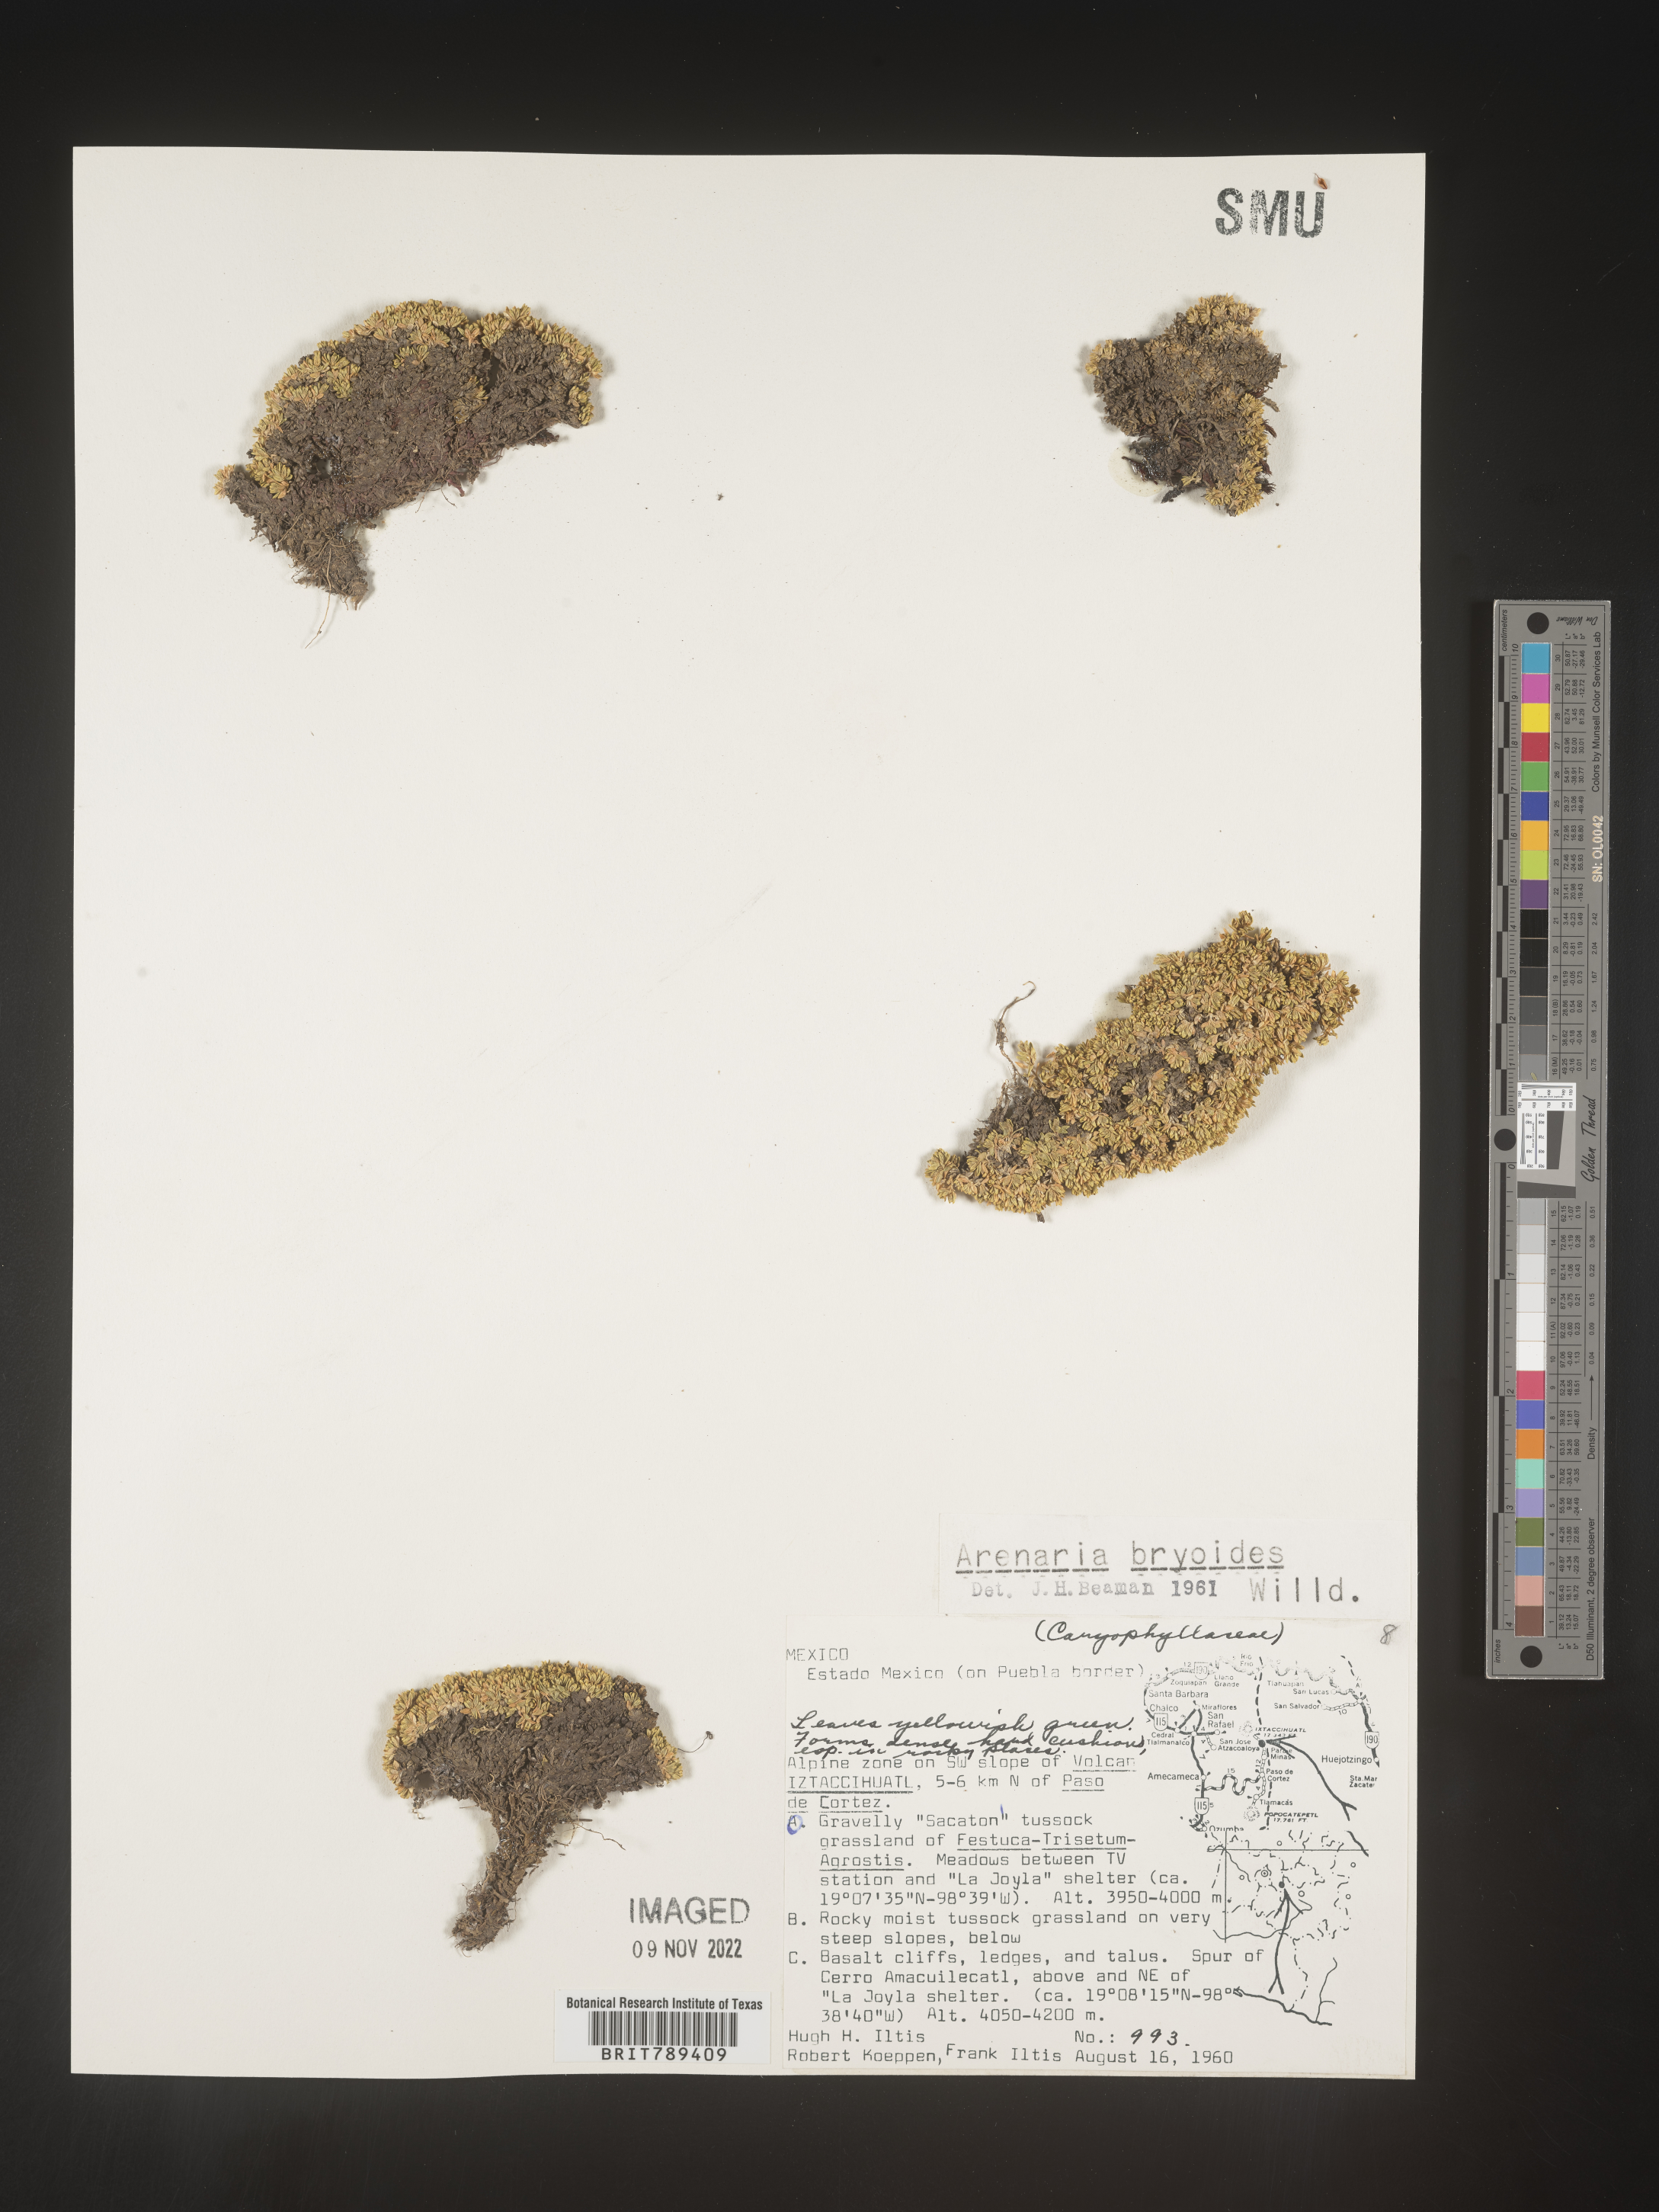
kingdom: Plantae
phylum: Tracheophyta
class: Magnoliopsida
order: Caryophyllales
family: Caryophyllaceae
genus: Arenaria
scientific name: Arenaria
